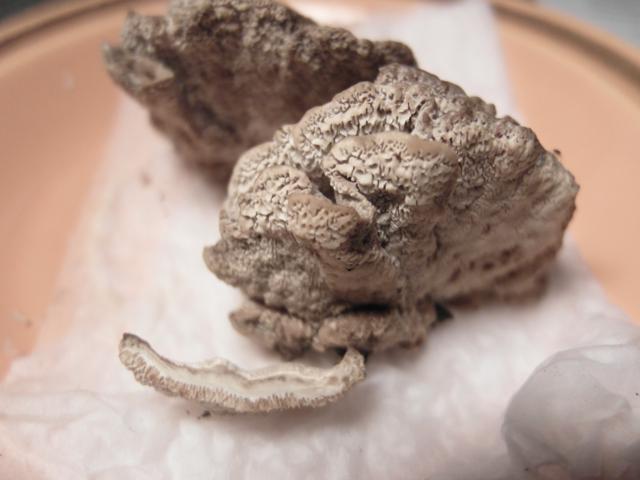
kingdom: Fungi
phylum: Basidiomycota
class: Agaricomycetes
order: Polyporales
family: Polyporaceae
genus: Trametes
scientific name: Trametes versicolor
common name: broget læderporesvamp
